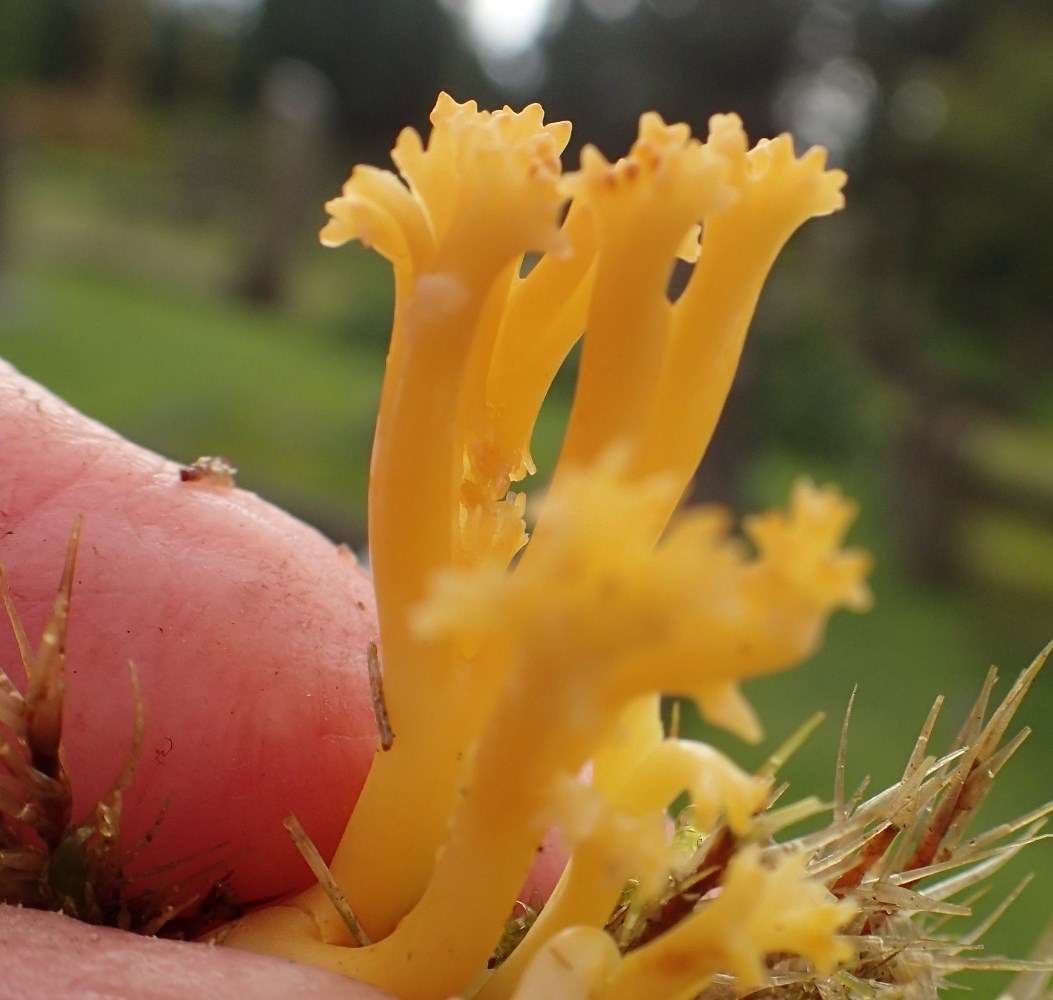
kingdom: Fungi
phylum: Basidiomycota
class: Agaricomycetes
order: Agaricales
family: Clavariaceae
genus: Clavulinopsis
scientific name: Clavulinopsis corniculata
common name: eng-køllesvamp
